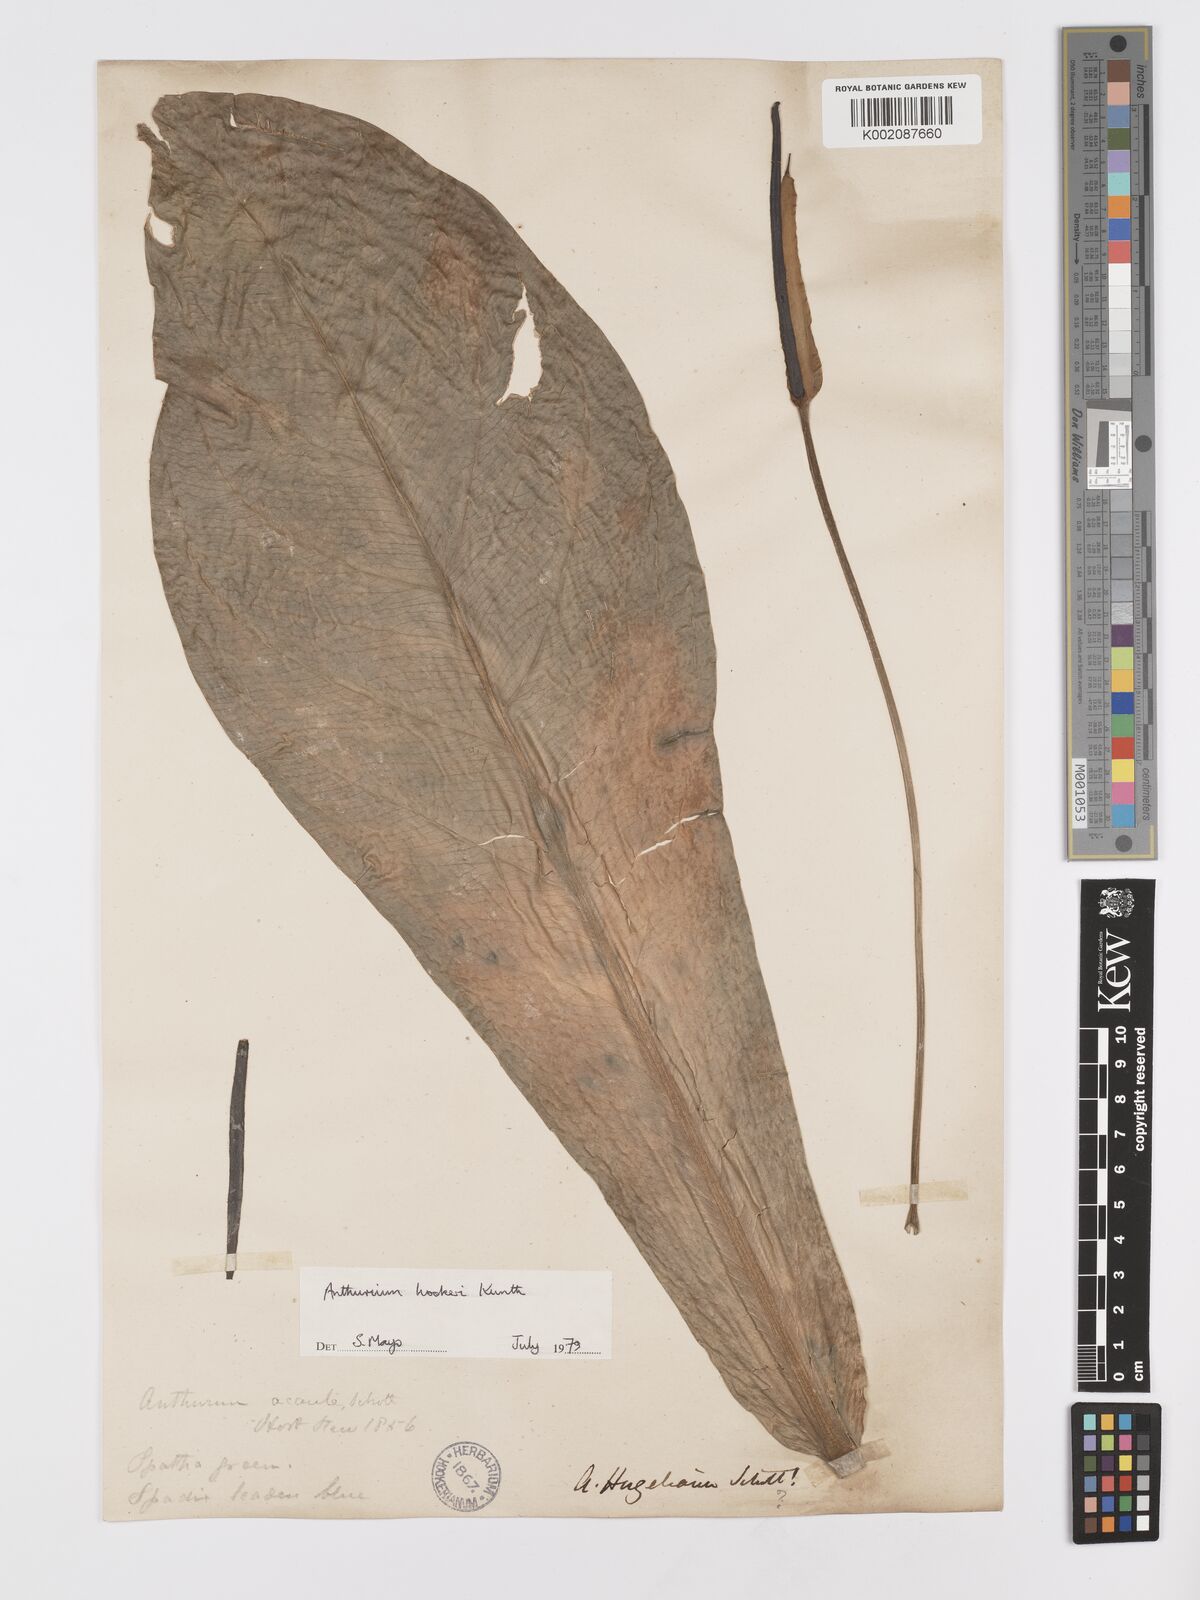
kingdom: Plantae
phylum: Tracheophyta
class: Liliopsida
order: Alismatales
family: Araceae
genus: Anthurium
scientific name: Anthurium hookeri
